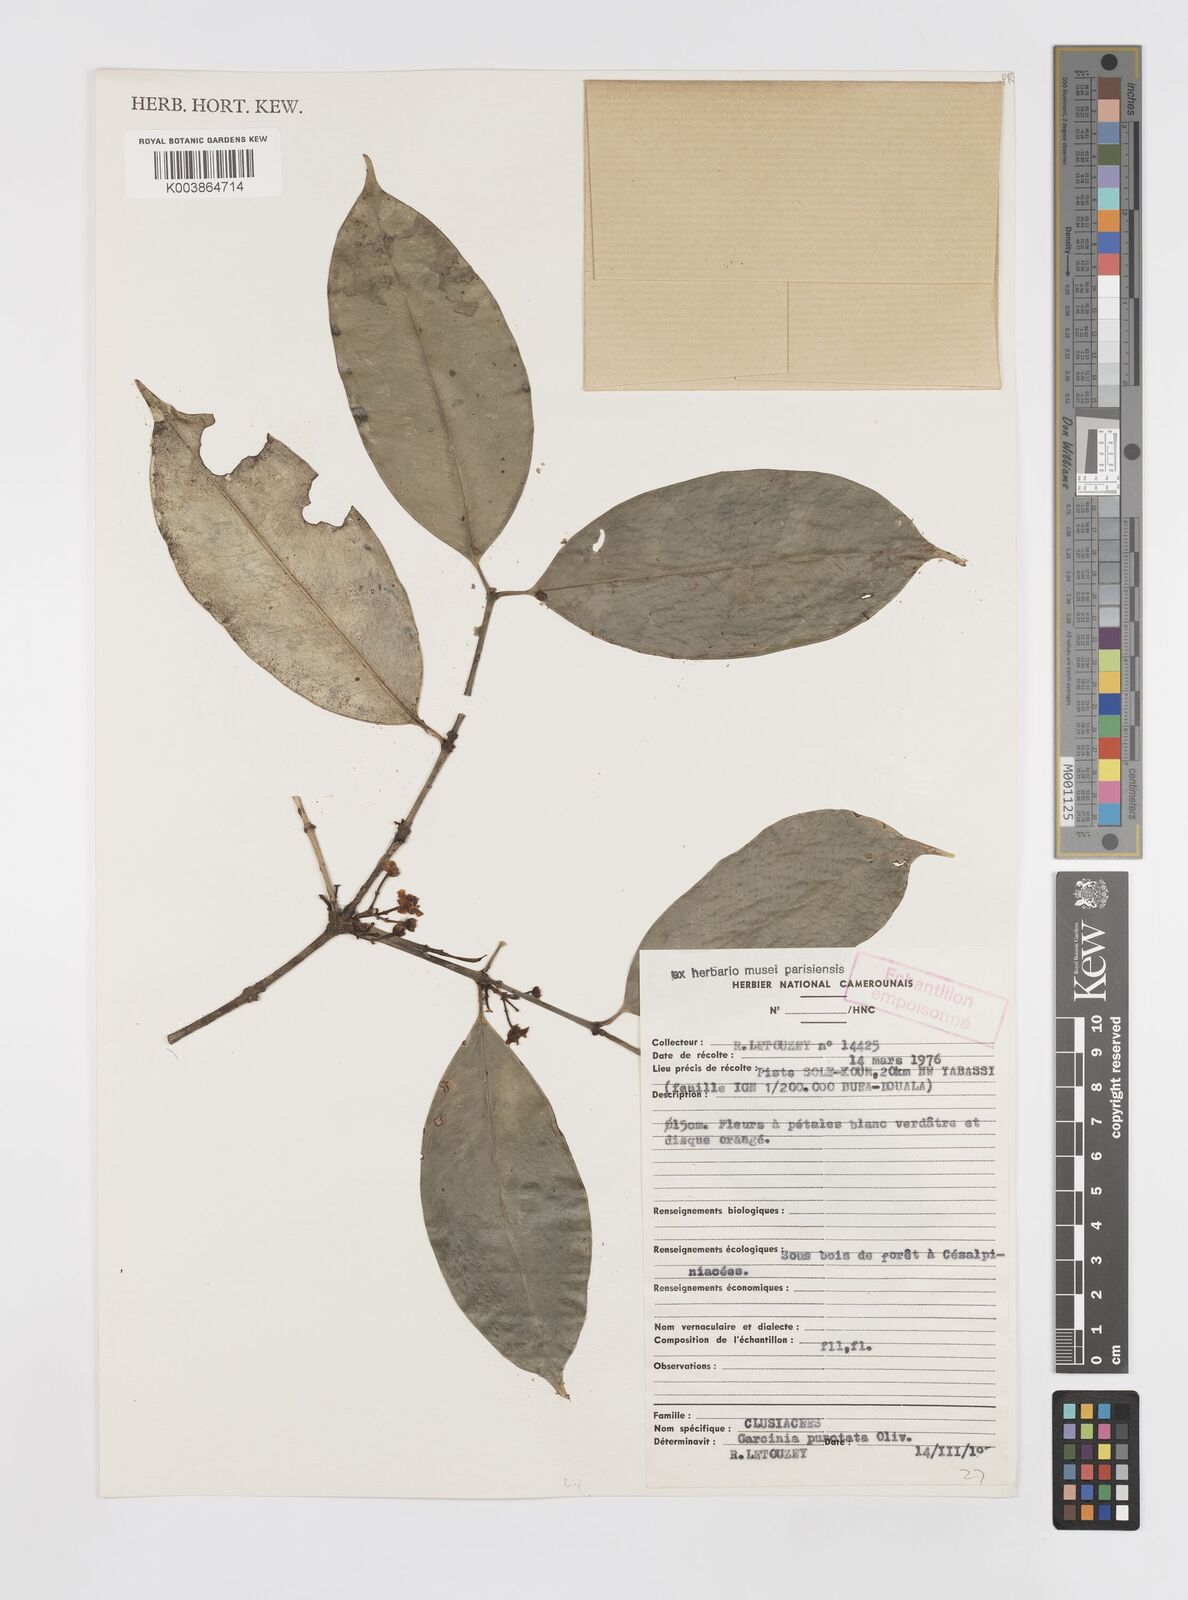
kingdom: Plantae
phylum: Tracheophyta
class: Magnoliopsida
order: Malpighiales
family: Clusiaceae
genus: Garcinia
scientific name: Garcinia punctata
